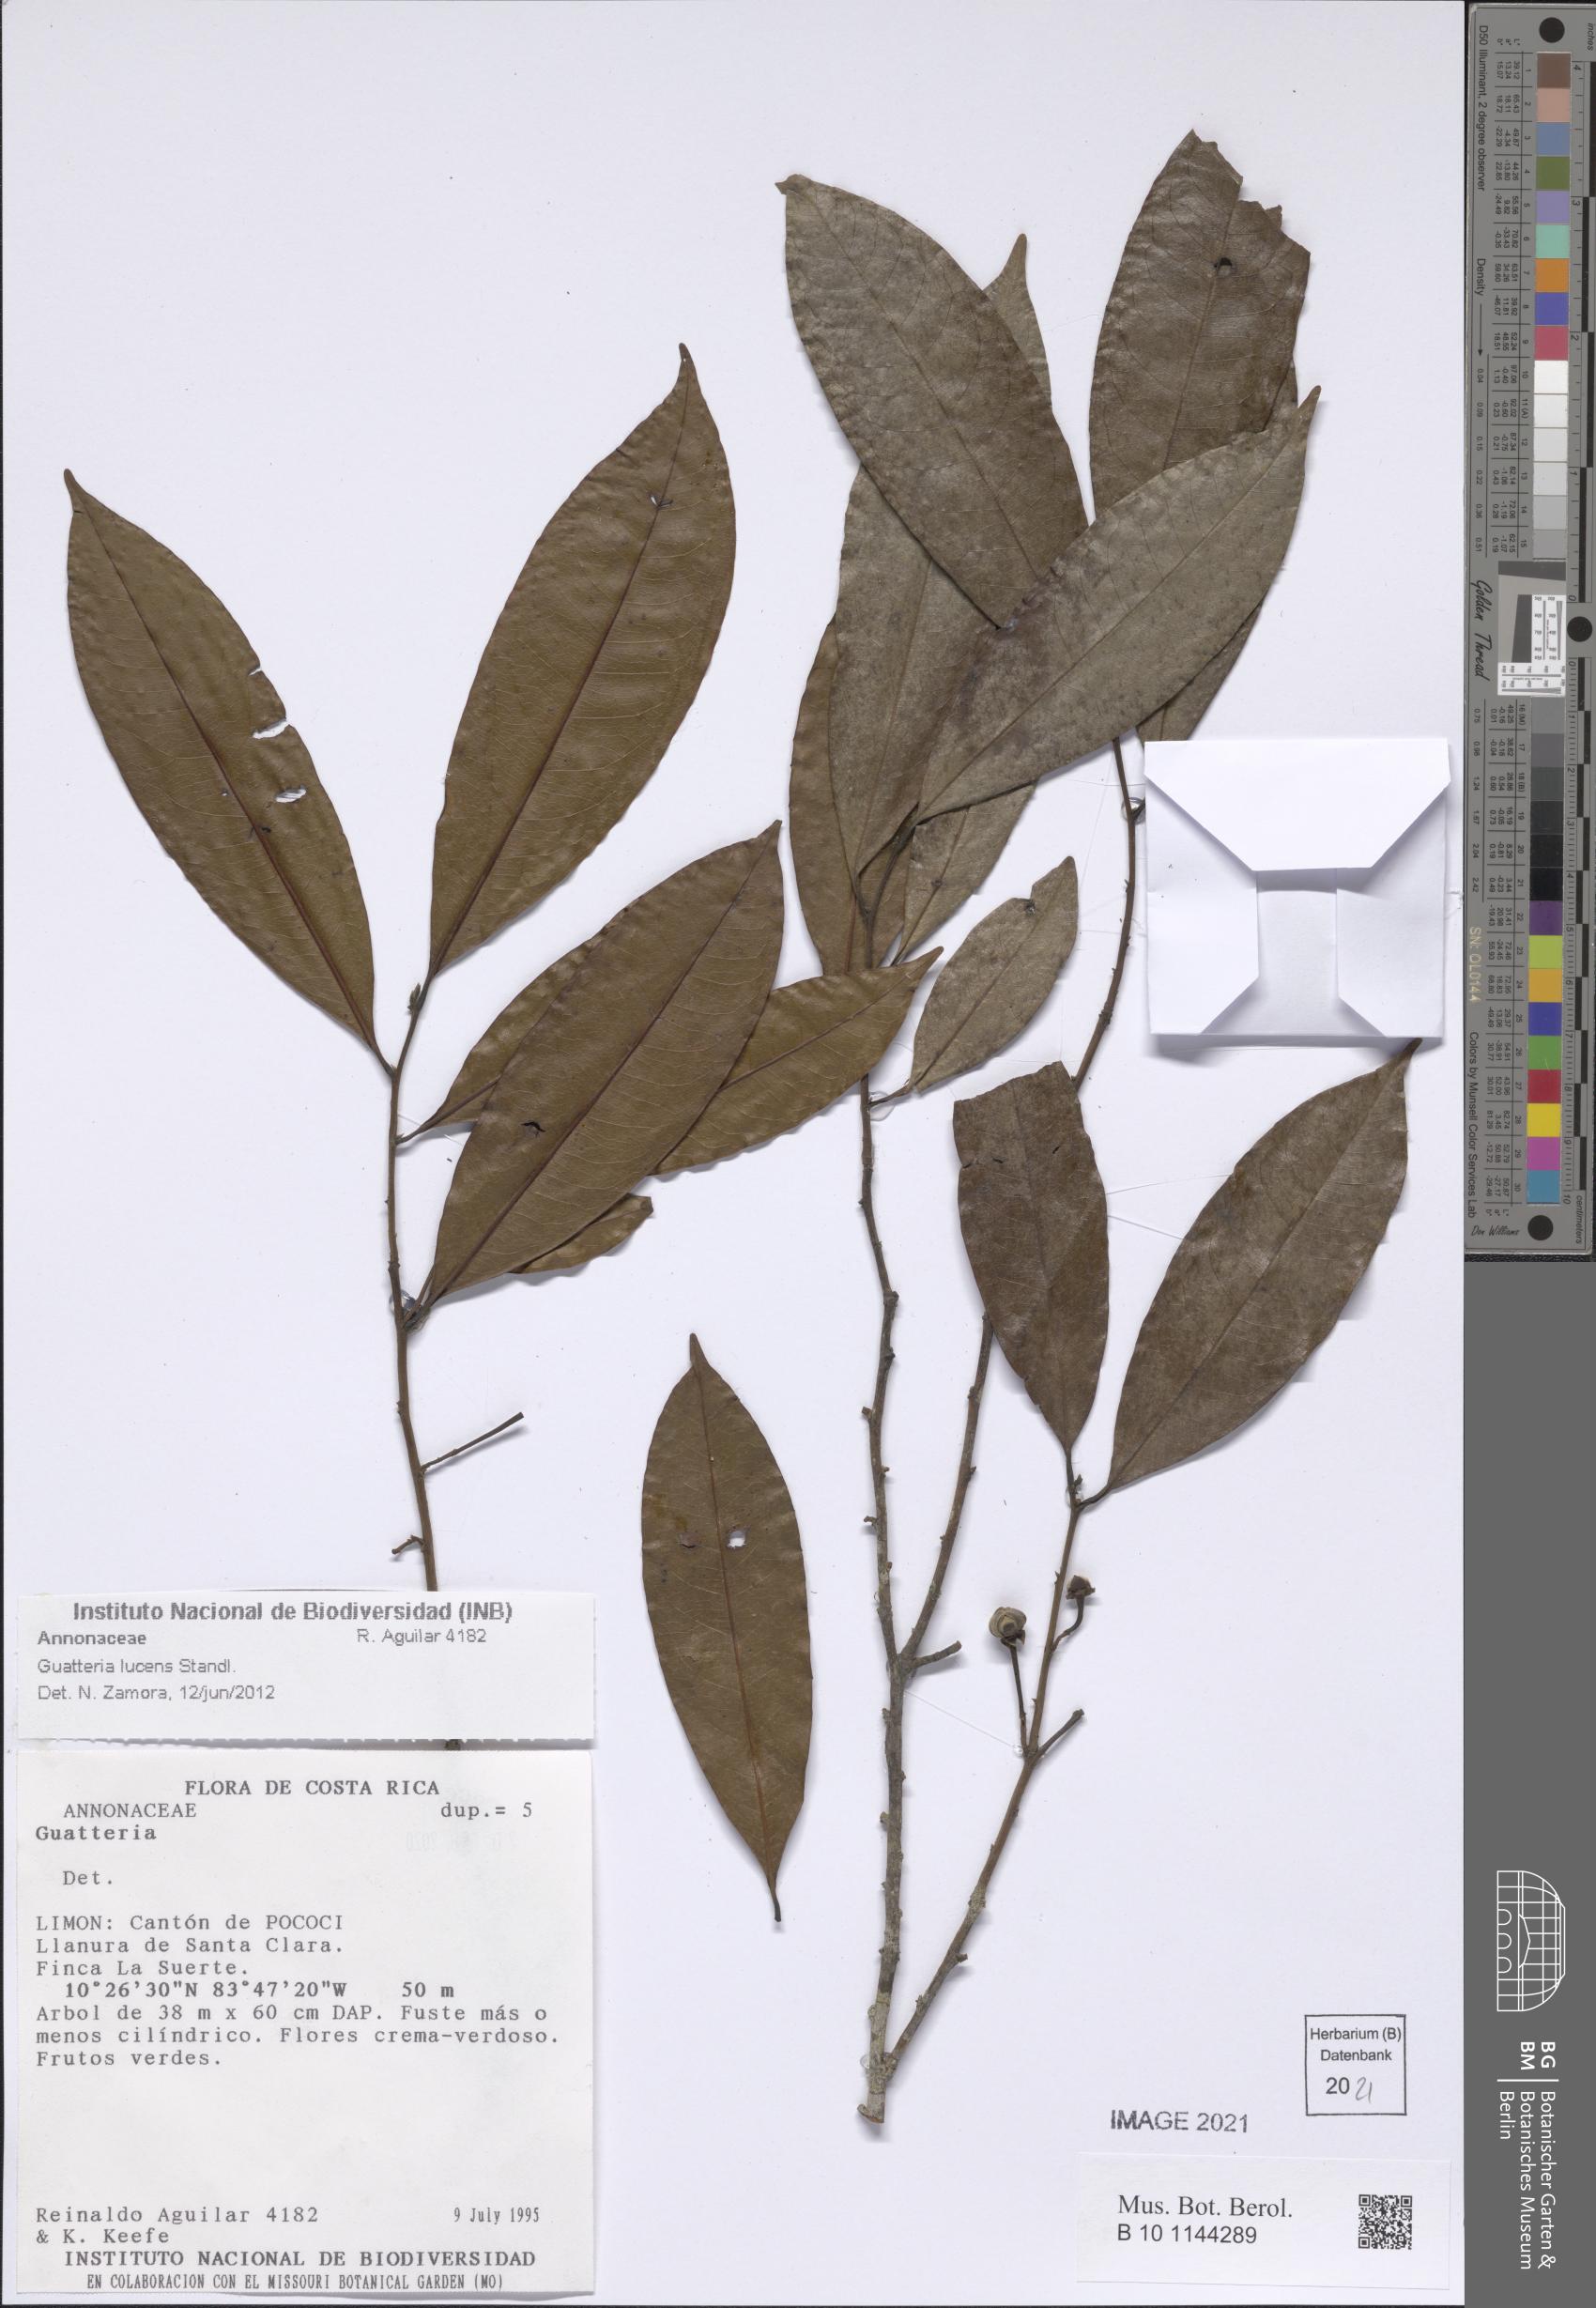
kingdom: Plantae
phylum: Tracheophyta
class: Magnoliopsida
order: Magnoliales
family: Annonaceae
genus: Guatteria
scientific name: Guatteria lucens
